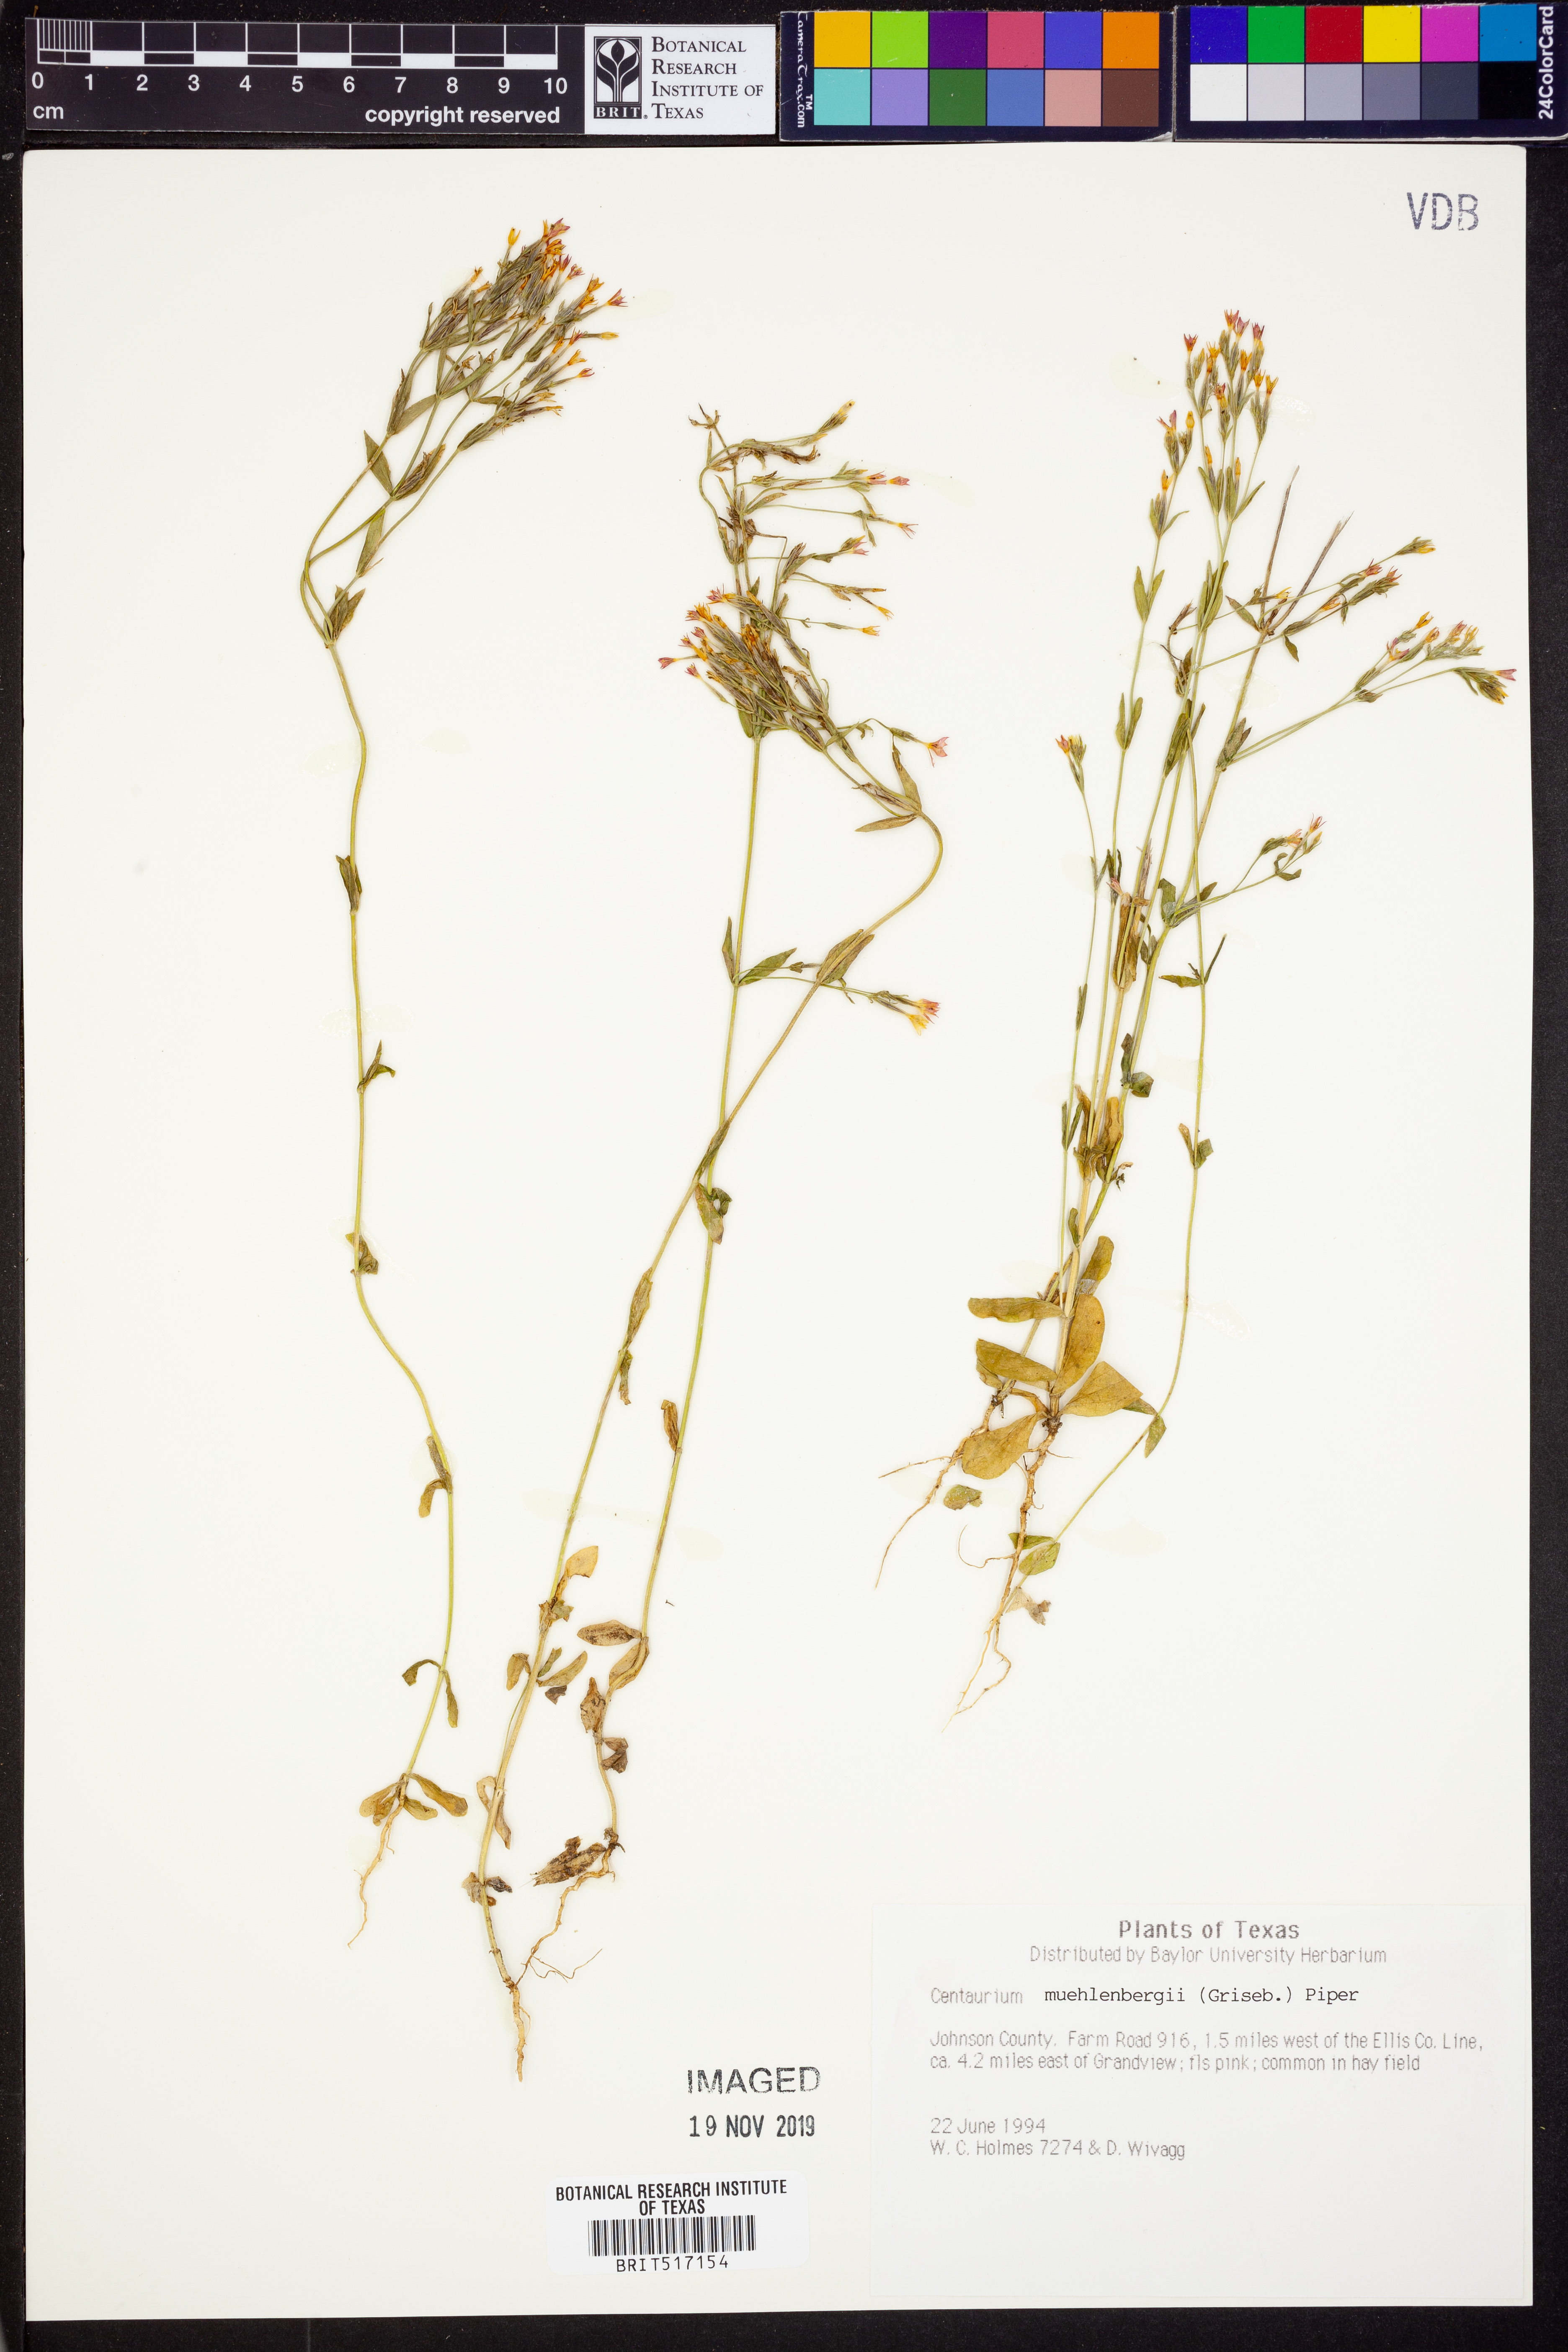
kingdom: Plantae
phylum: Tracheophyta
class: Magnoliopsida
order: Gentianales
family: Gentianaceae
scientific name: Gentianaceae
